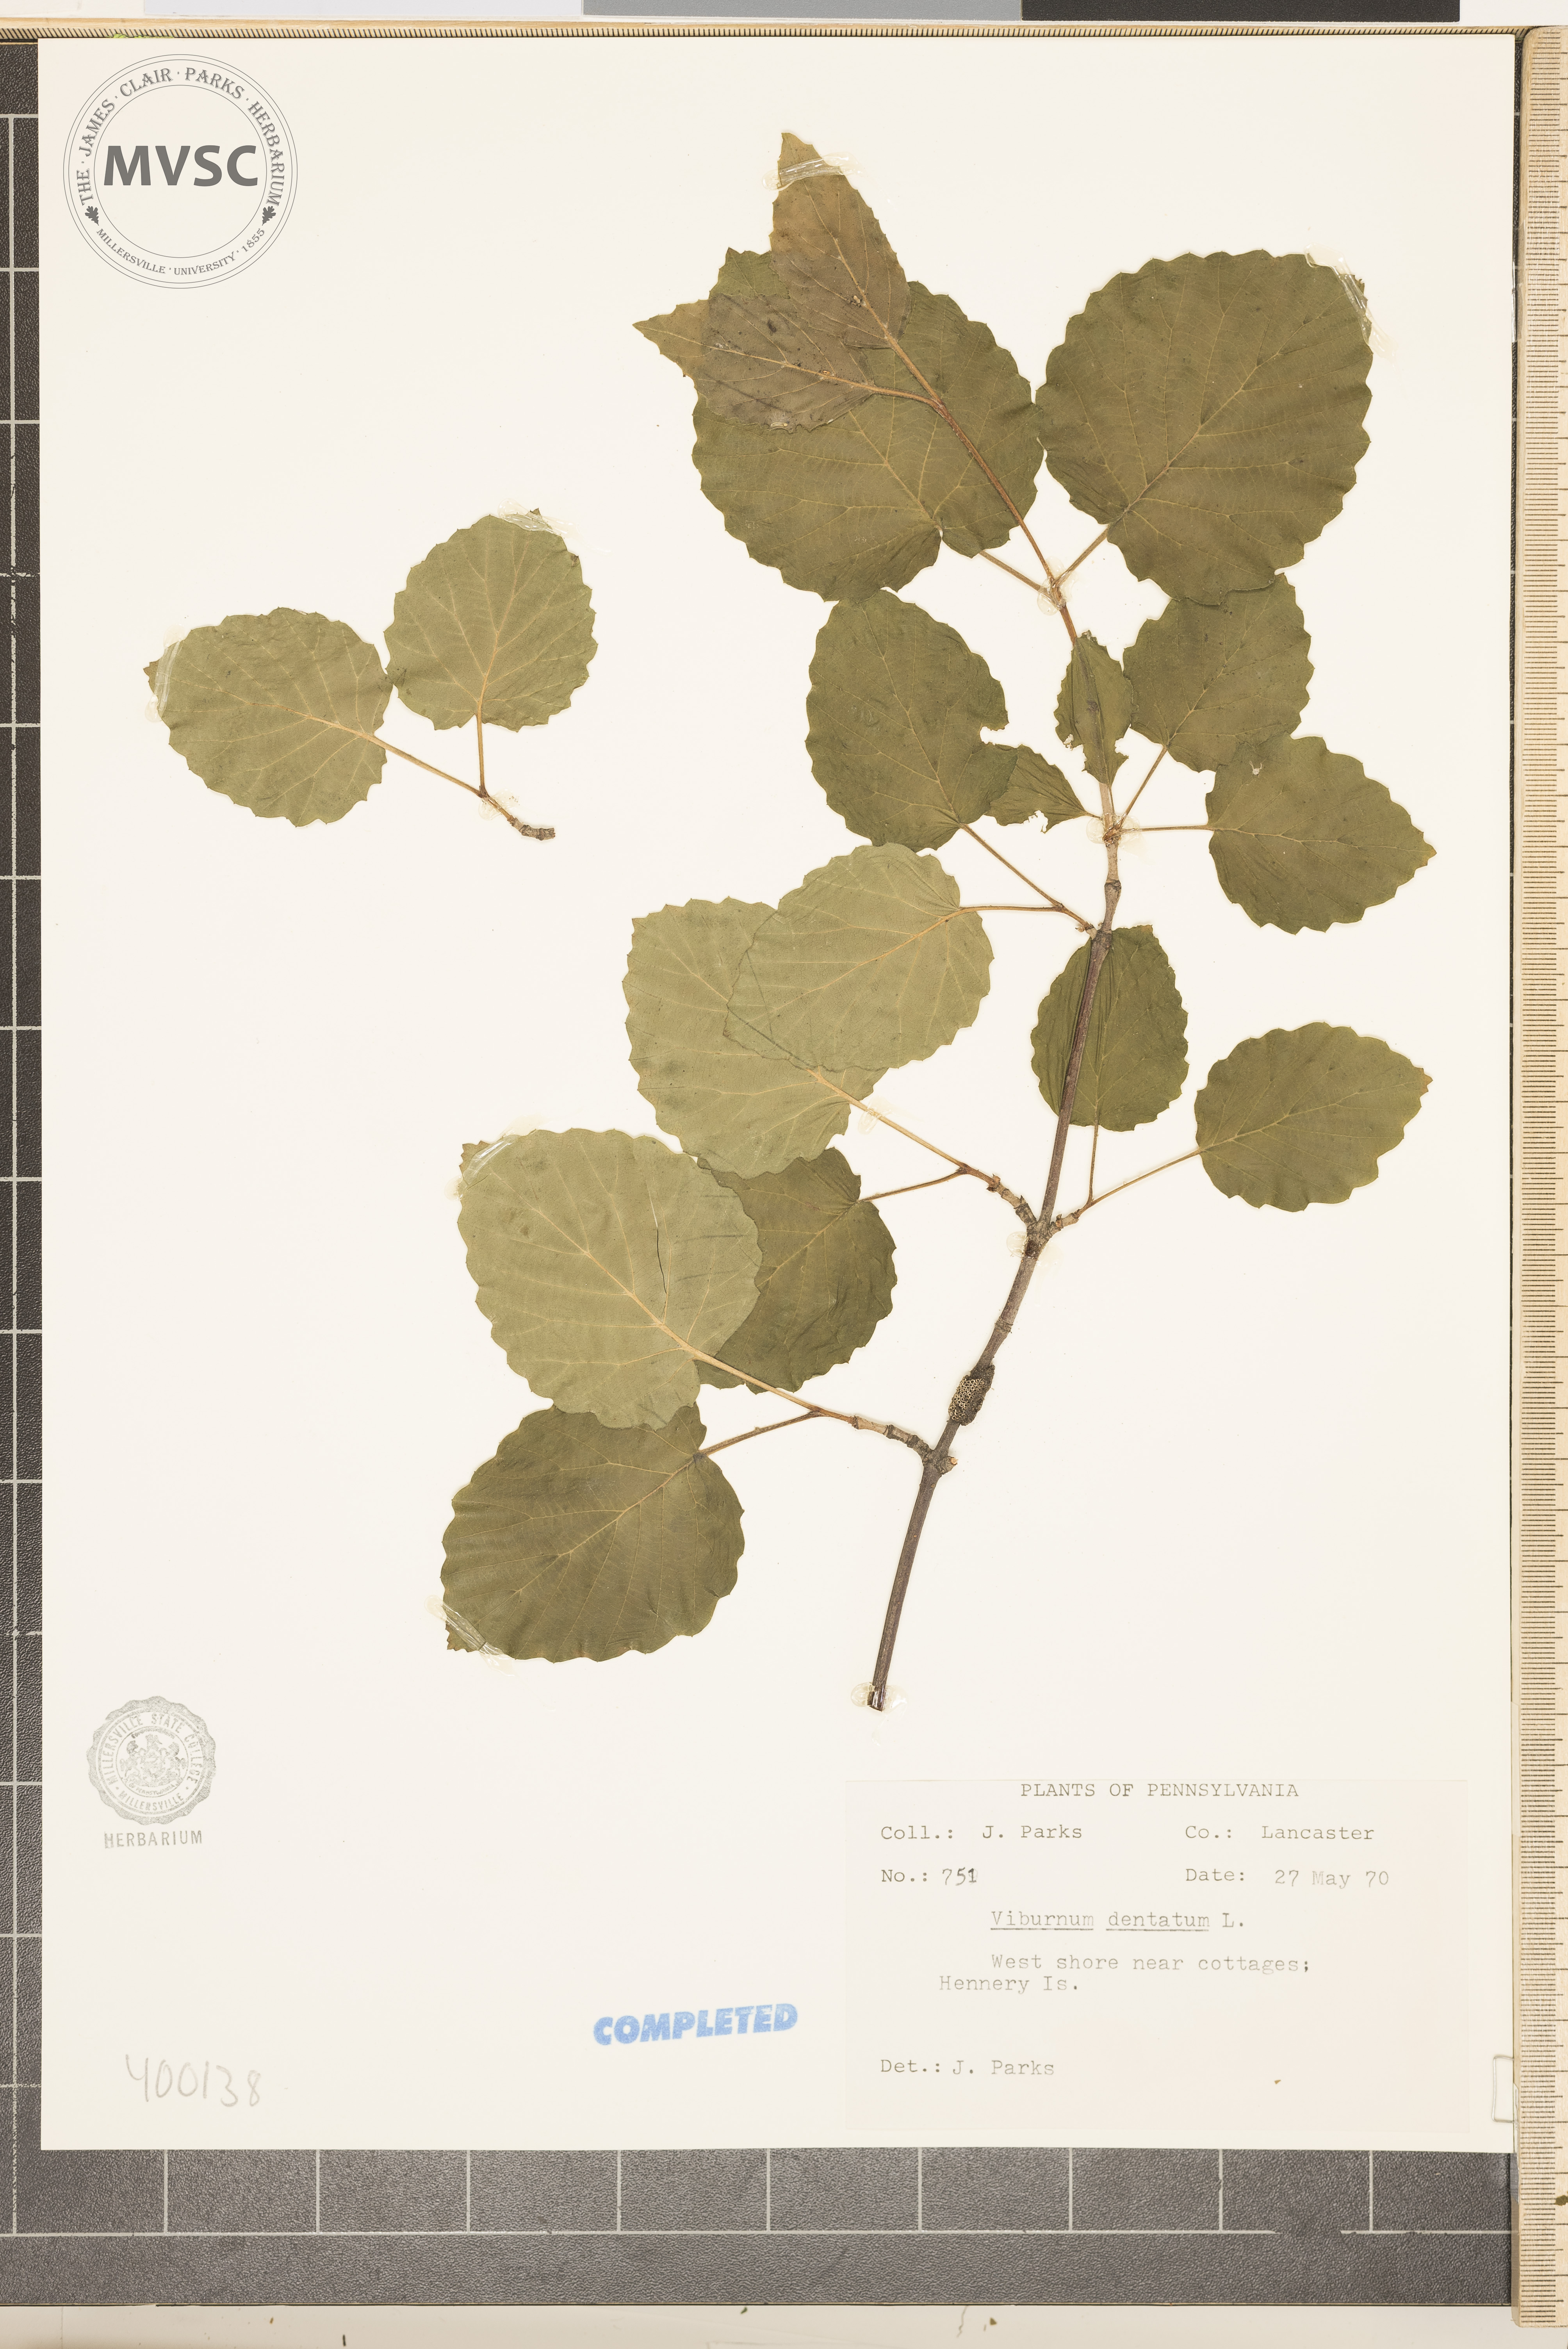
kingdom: Plantae
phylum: Tracheophyta
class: Magnoliopsida
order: Dipsacales
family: Viburnaceae
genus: Viburnum
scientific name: Viburnum dentatum
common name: viburnum
